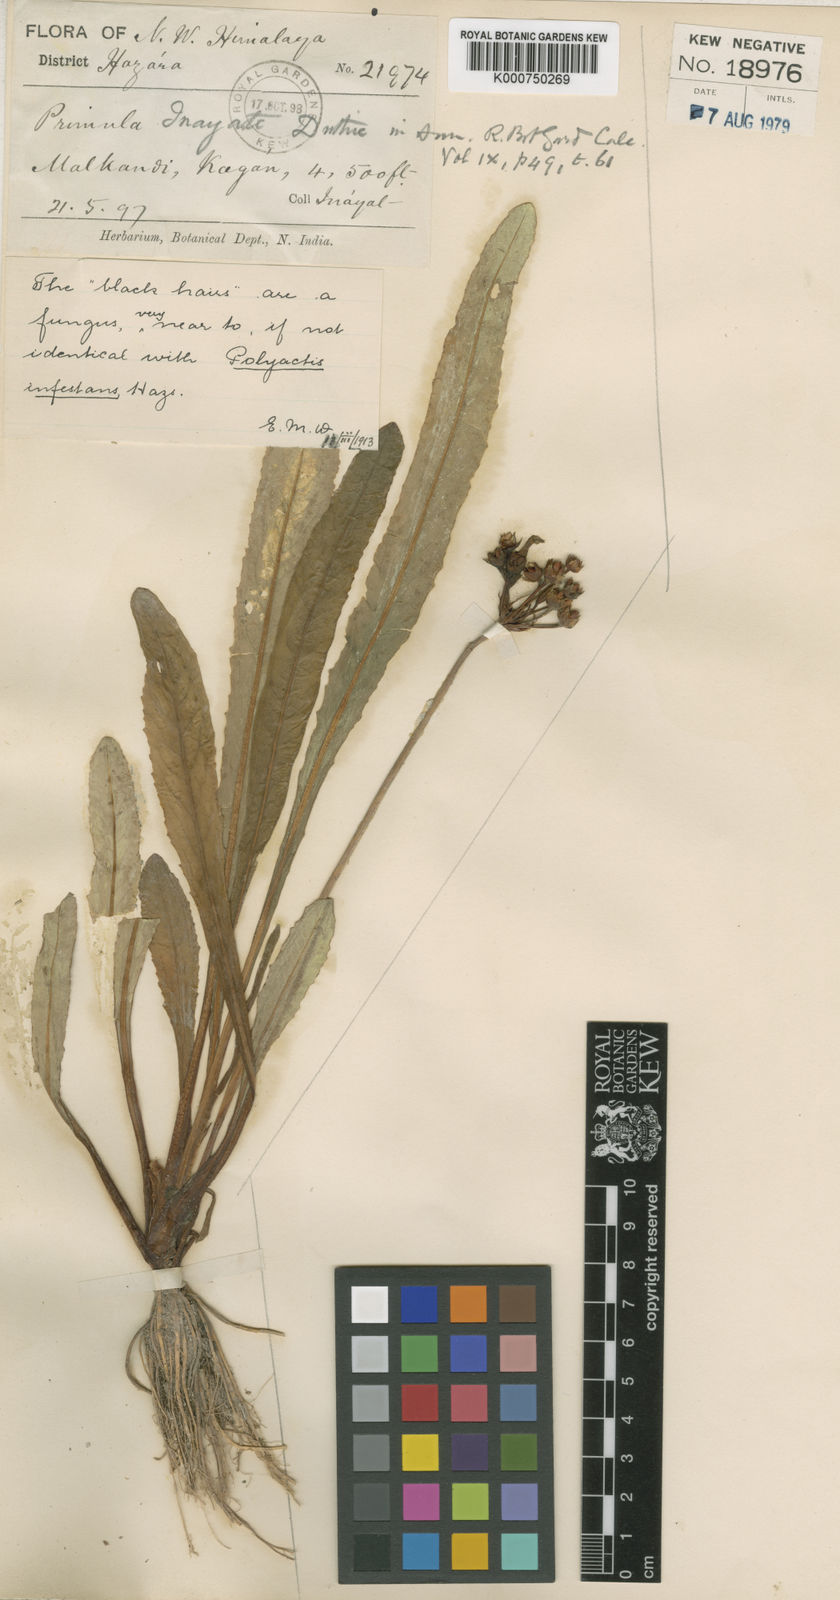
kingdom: Plantae
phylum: Tracheophyta
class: Magnoliopsida
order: Ericales
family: Primulaceae
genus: Primula
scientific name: Primula inayatii
